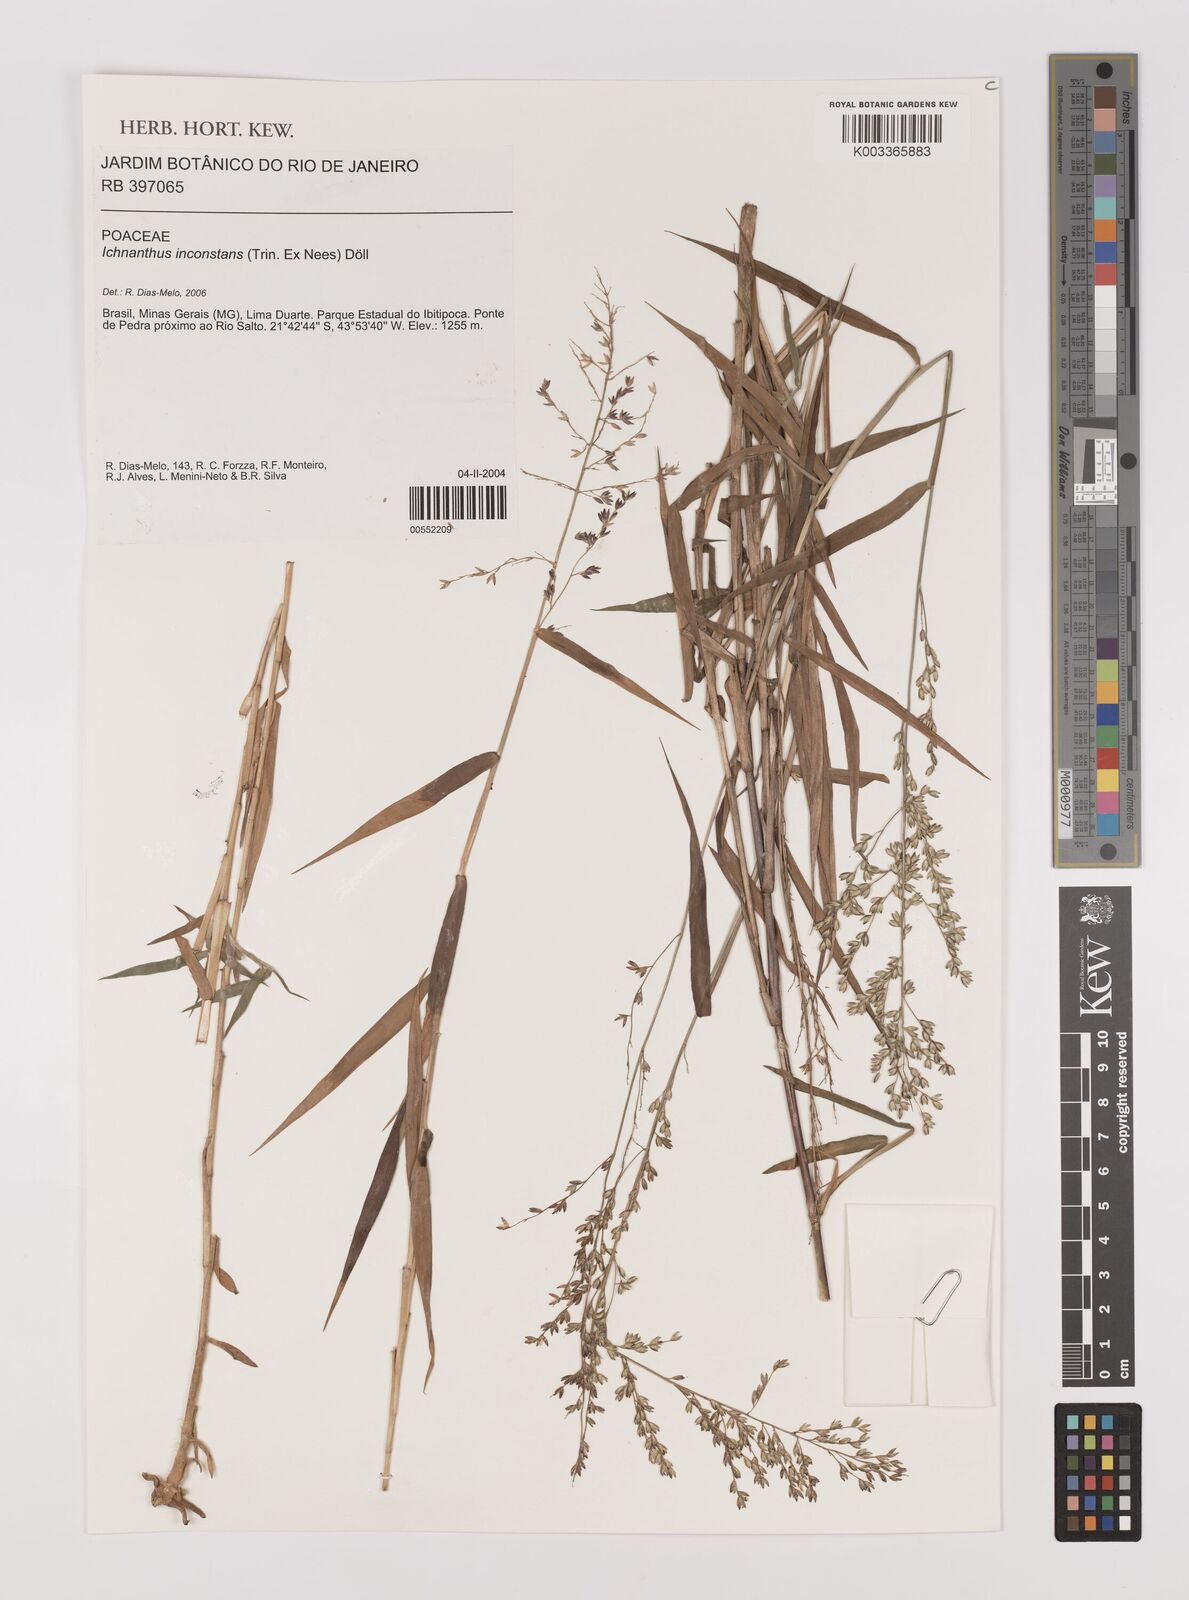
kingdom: Plantae
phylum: Tracheophyta
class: Liliopsida
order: Poales
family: Poaceae
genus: Ichnanthus
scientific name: Ichnanthus inconstans
